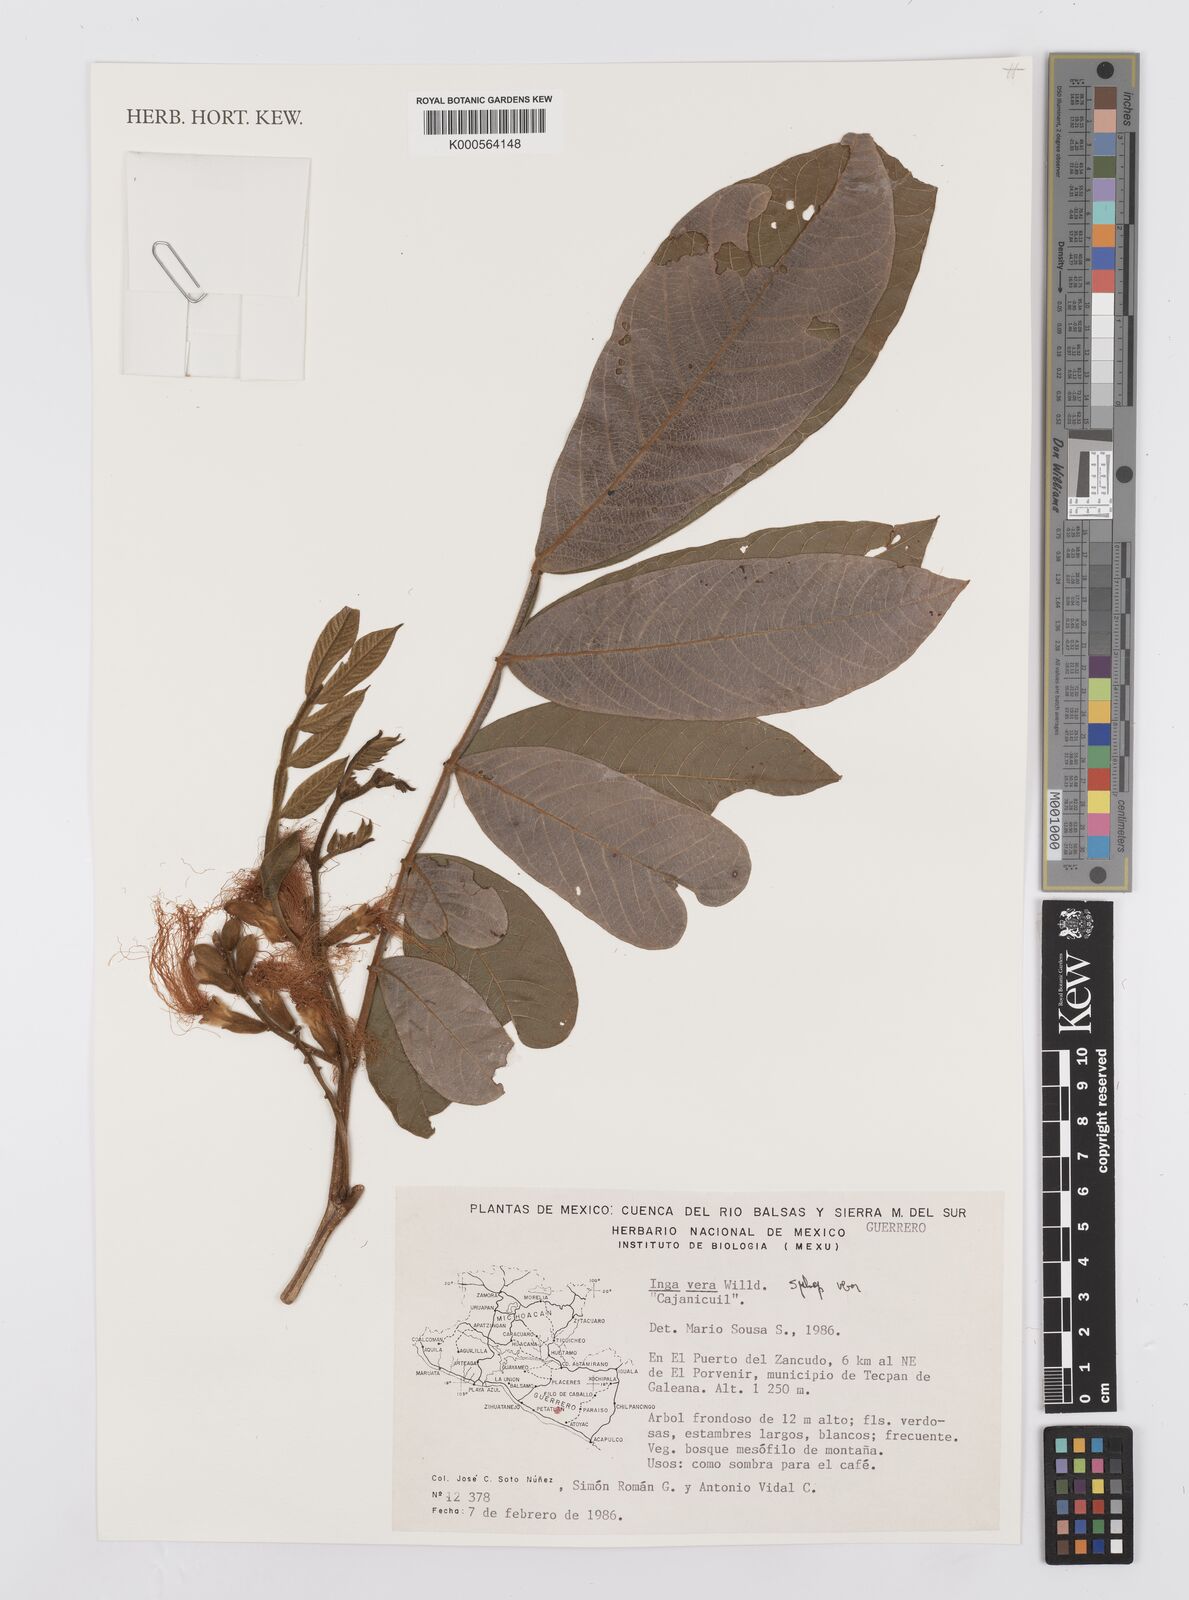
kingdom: Plantae
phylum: Tracheophyta
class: Magnoliopsida
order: Fabales
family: Fabaceae
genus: Inga
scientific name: Inga vera
